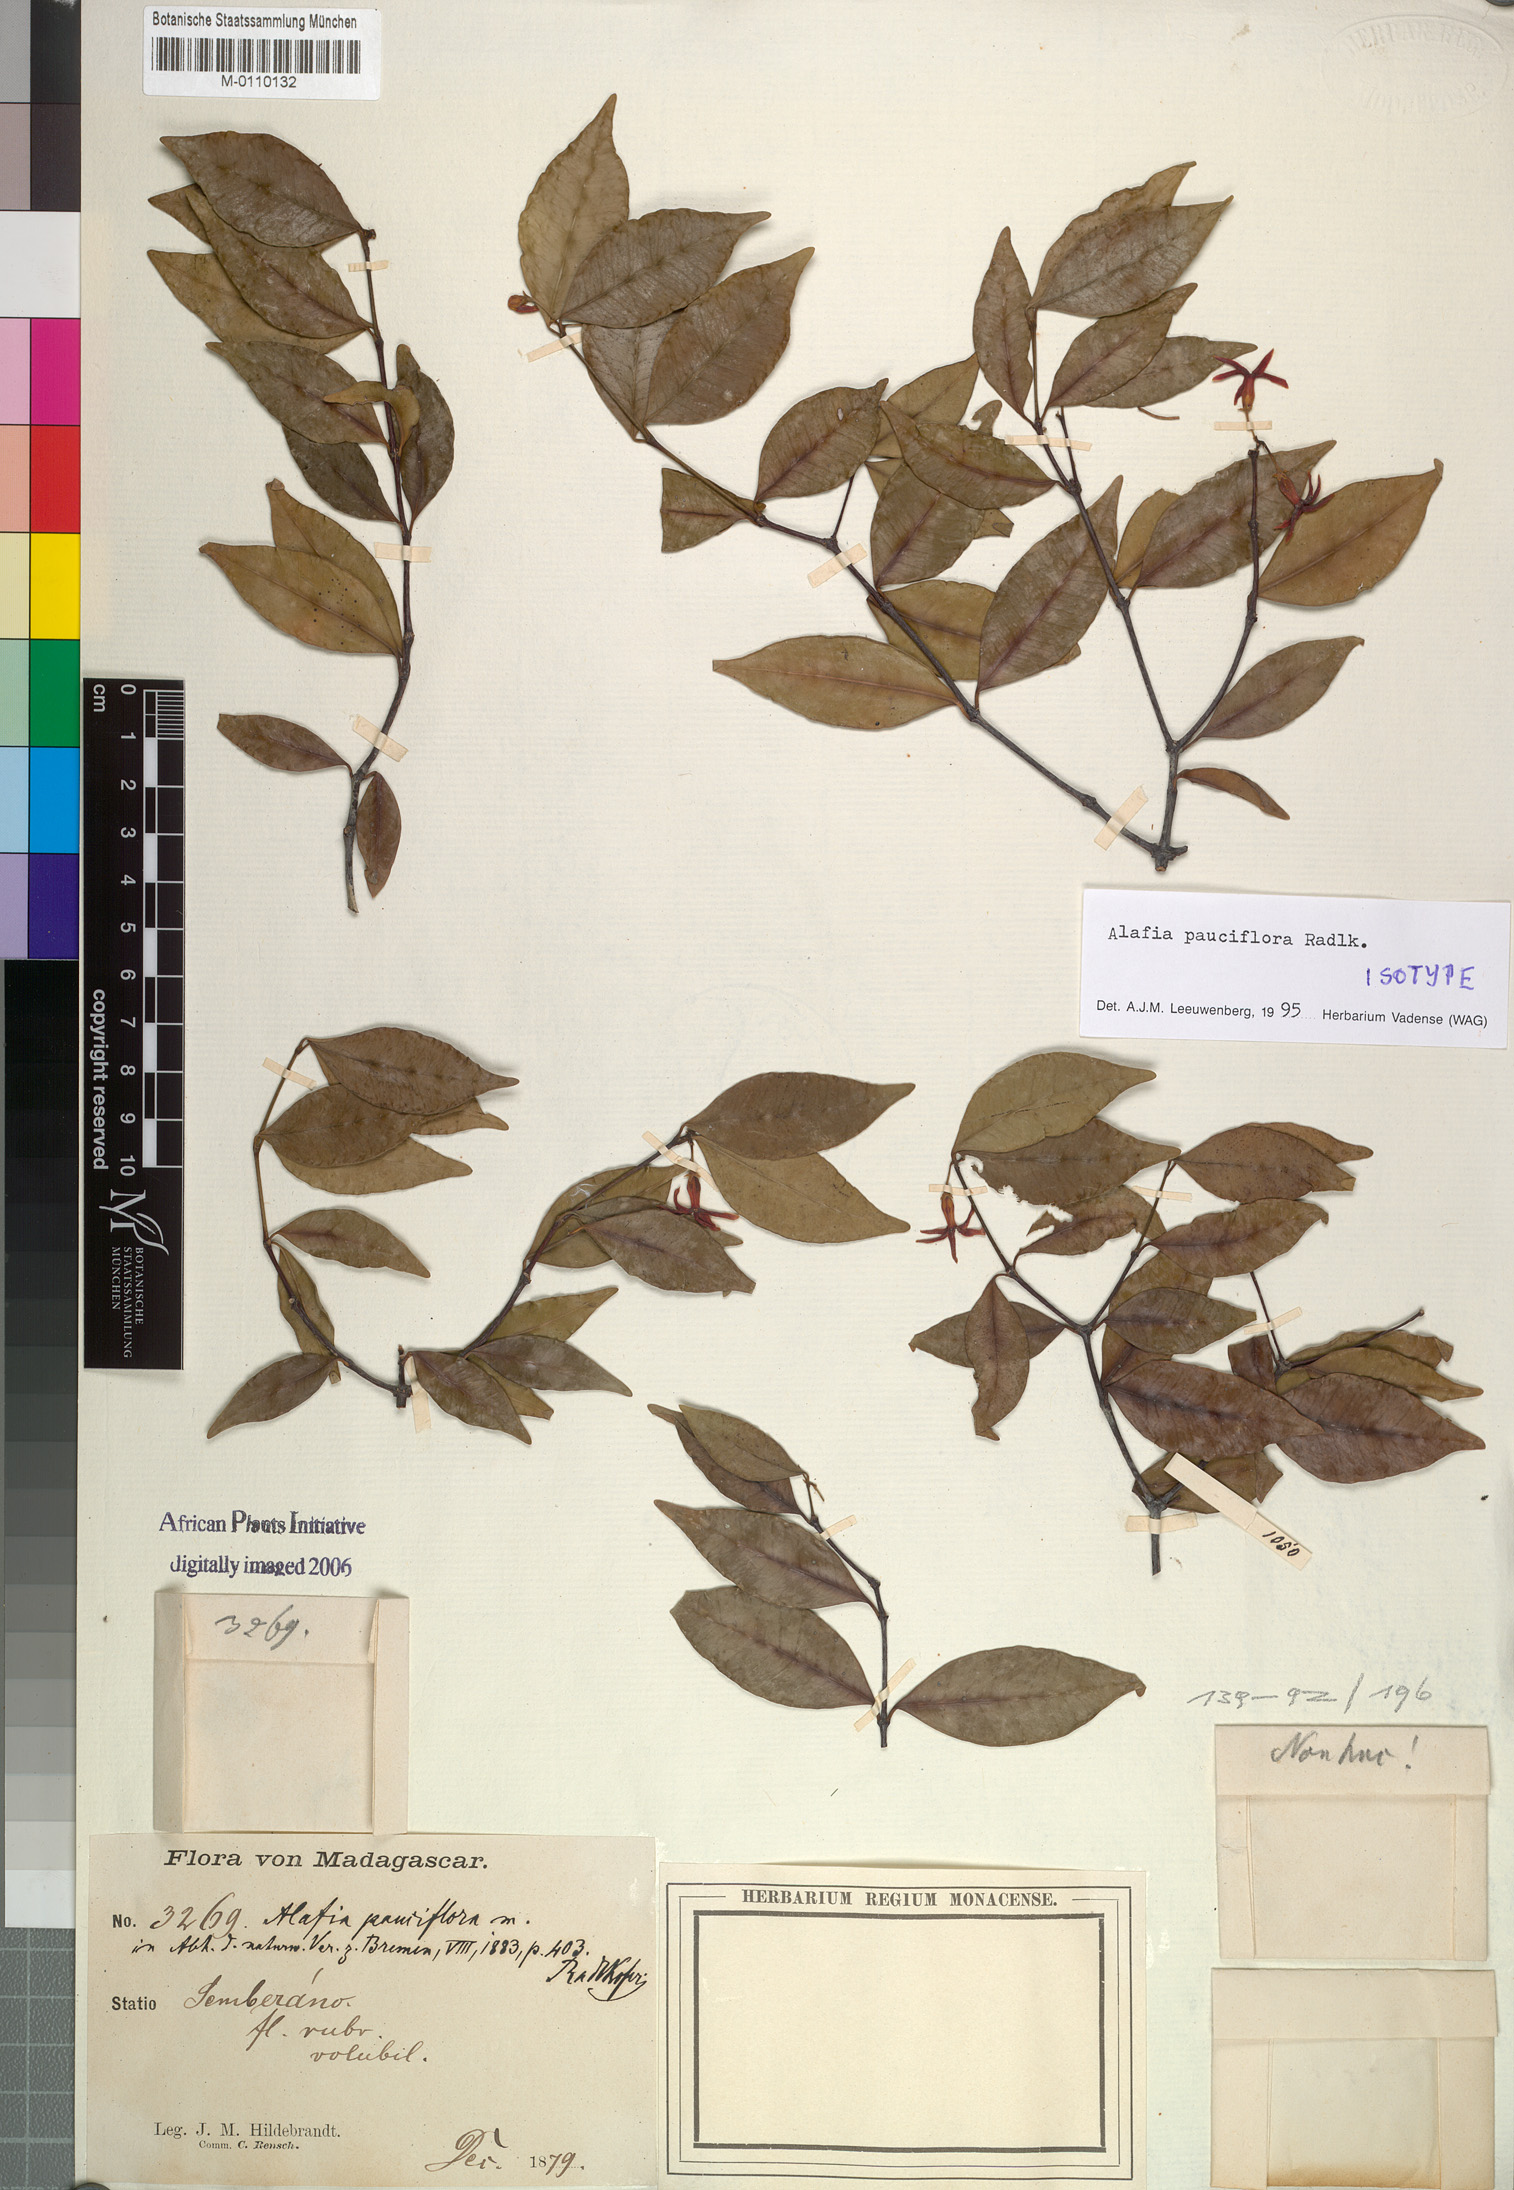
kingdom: Plantae
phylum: Tracheophyta
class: Magnoliopsida
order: Gentianales
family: Apocynaceae
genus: Alafia
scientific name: Alafia pauciflora
